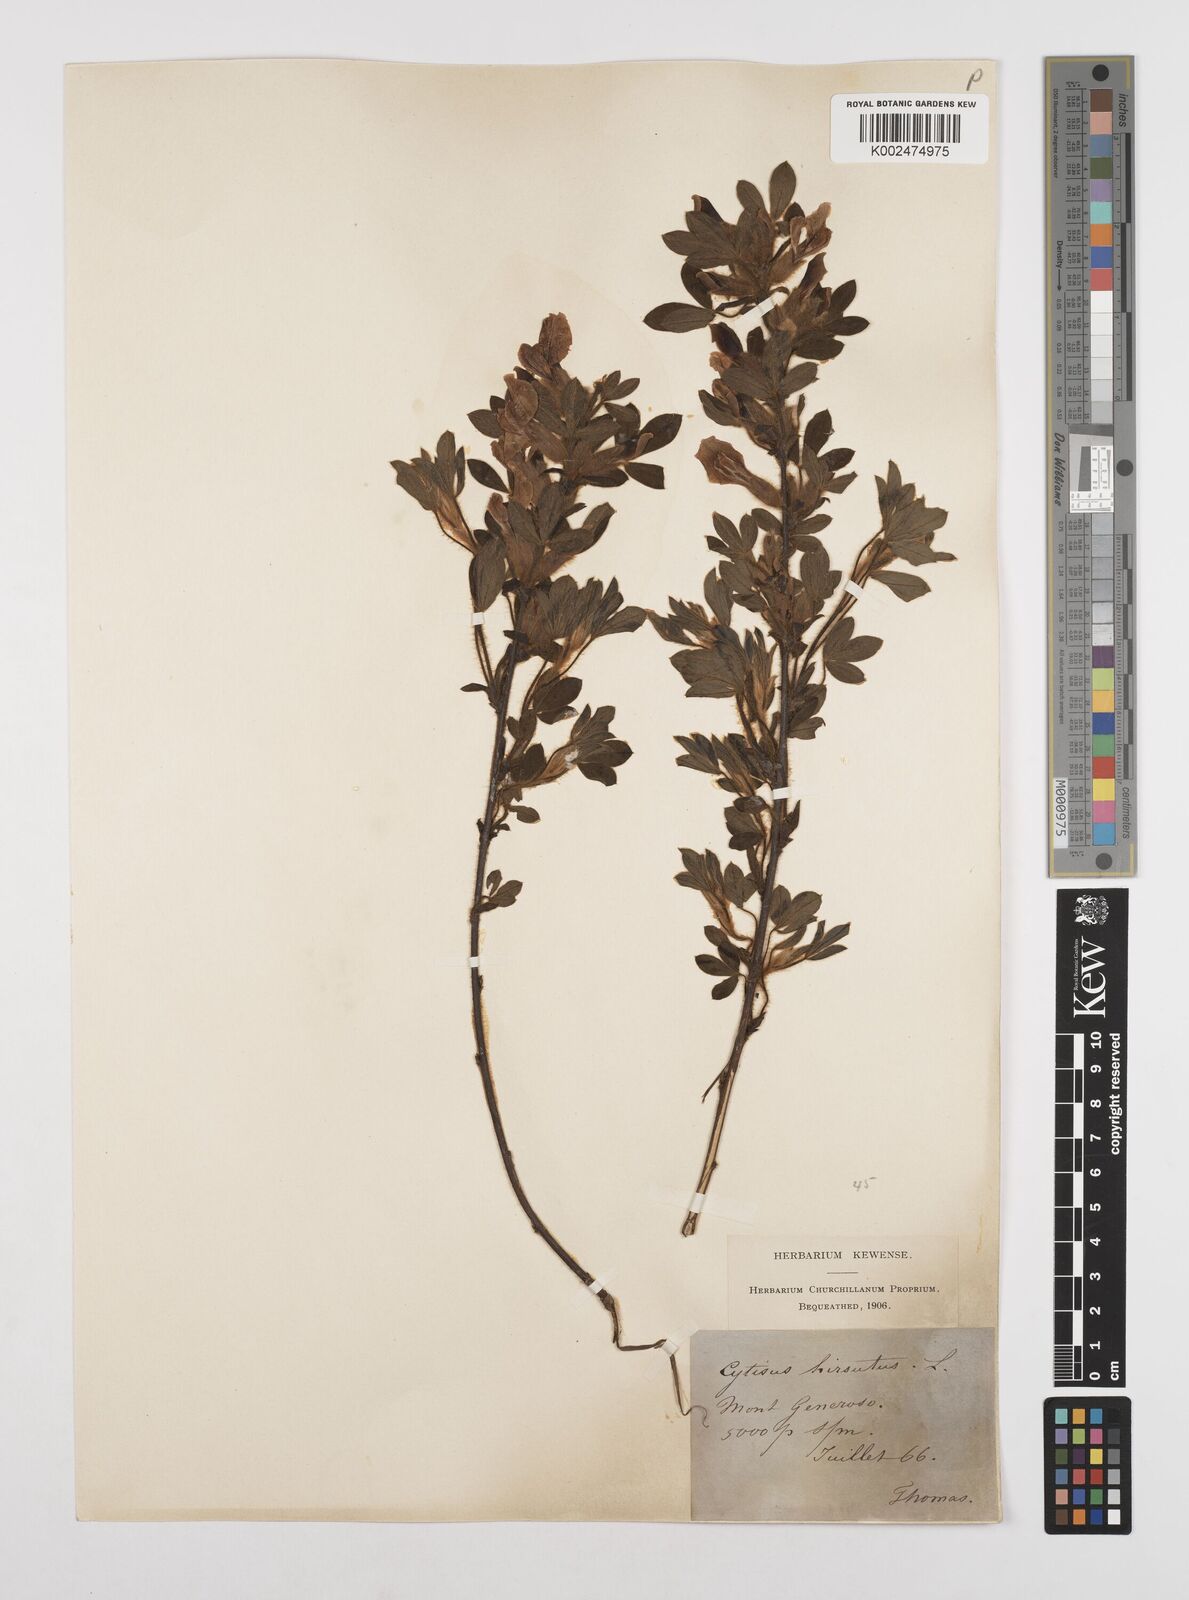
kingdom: Plantae
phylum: Tracheophyta
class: Magnoliopsida
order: Fabales
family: Fabaceae
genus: Chamaecytisus
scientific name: Chamaecytisus hirsutus
